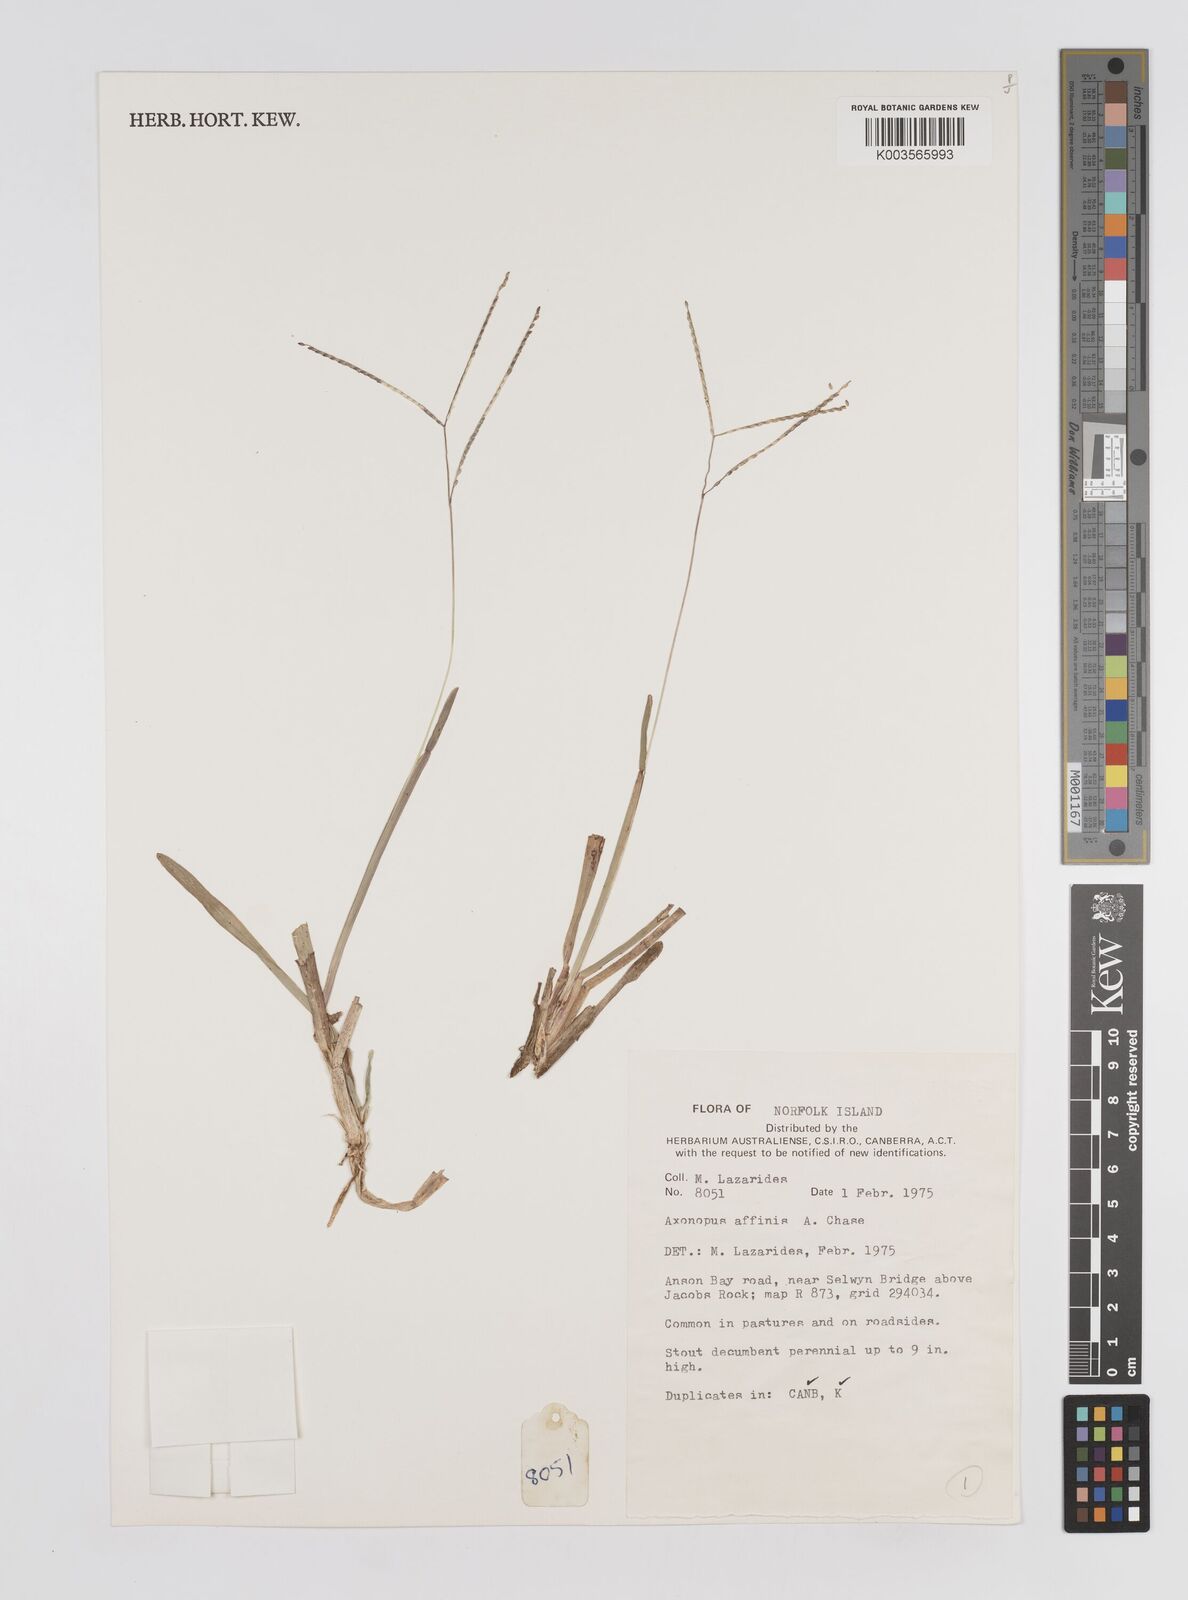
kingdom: Plantae
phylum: Tracheophyta
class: Liliopsida
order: Poales
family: Poaceae
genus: Axonopus
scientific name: Axonopus fissifolius
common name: Common carpetgrass
